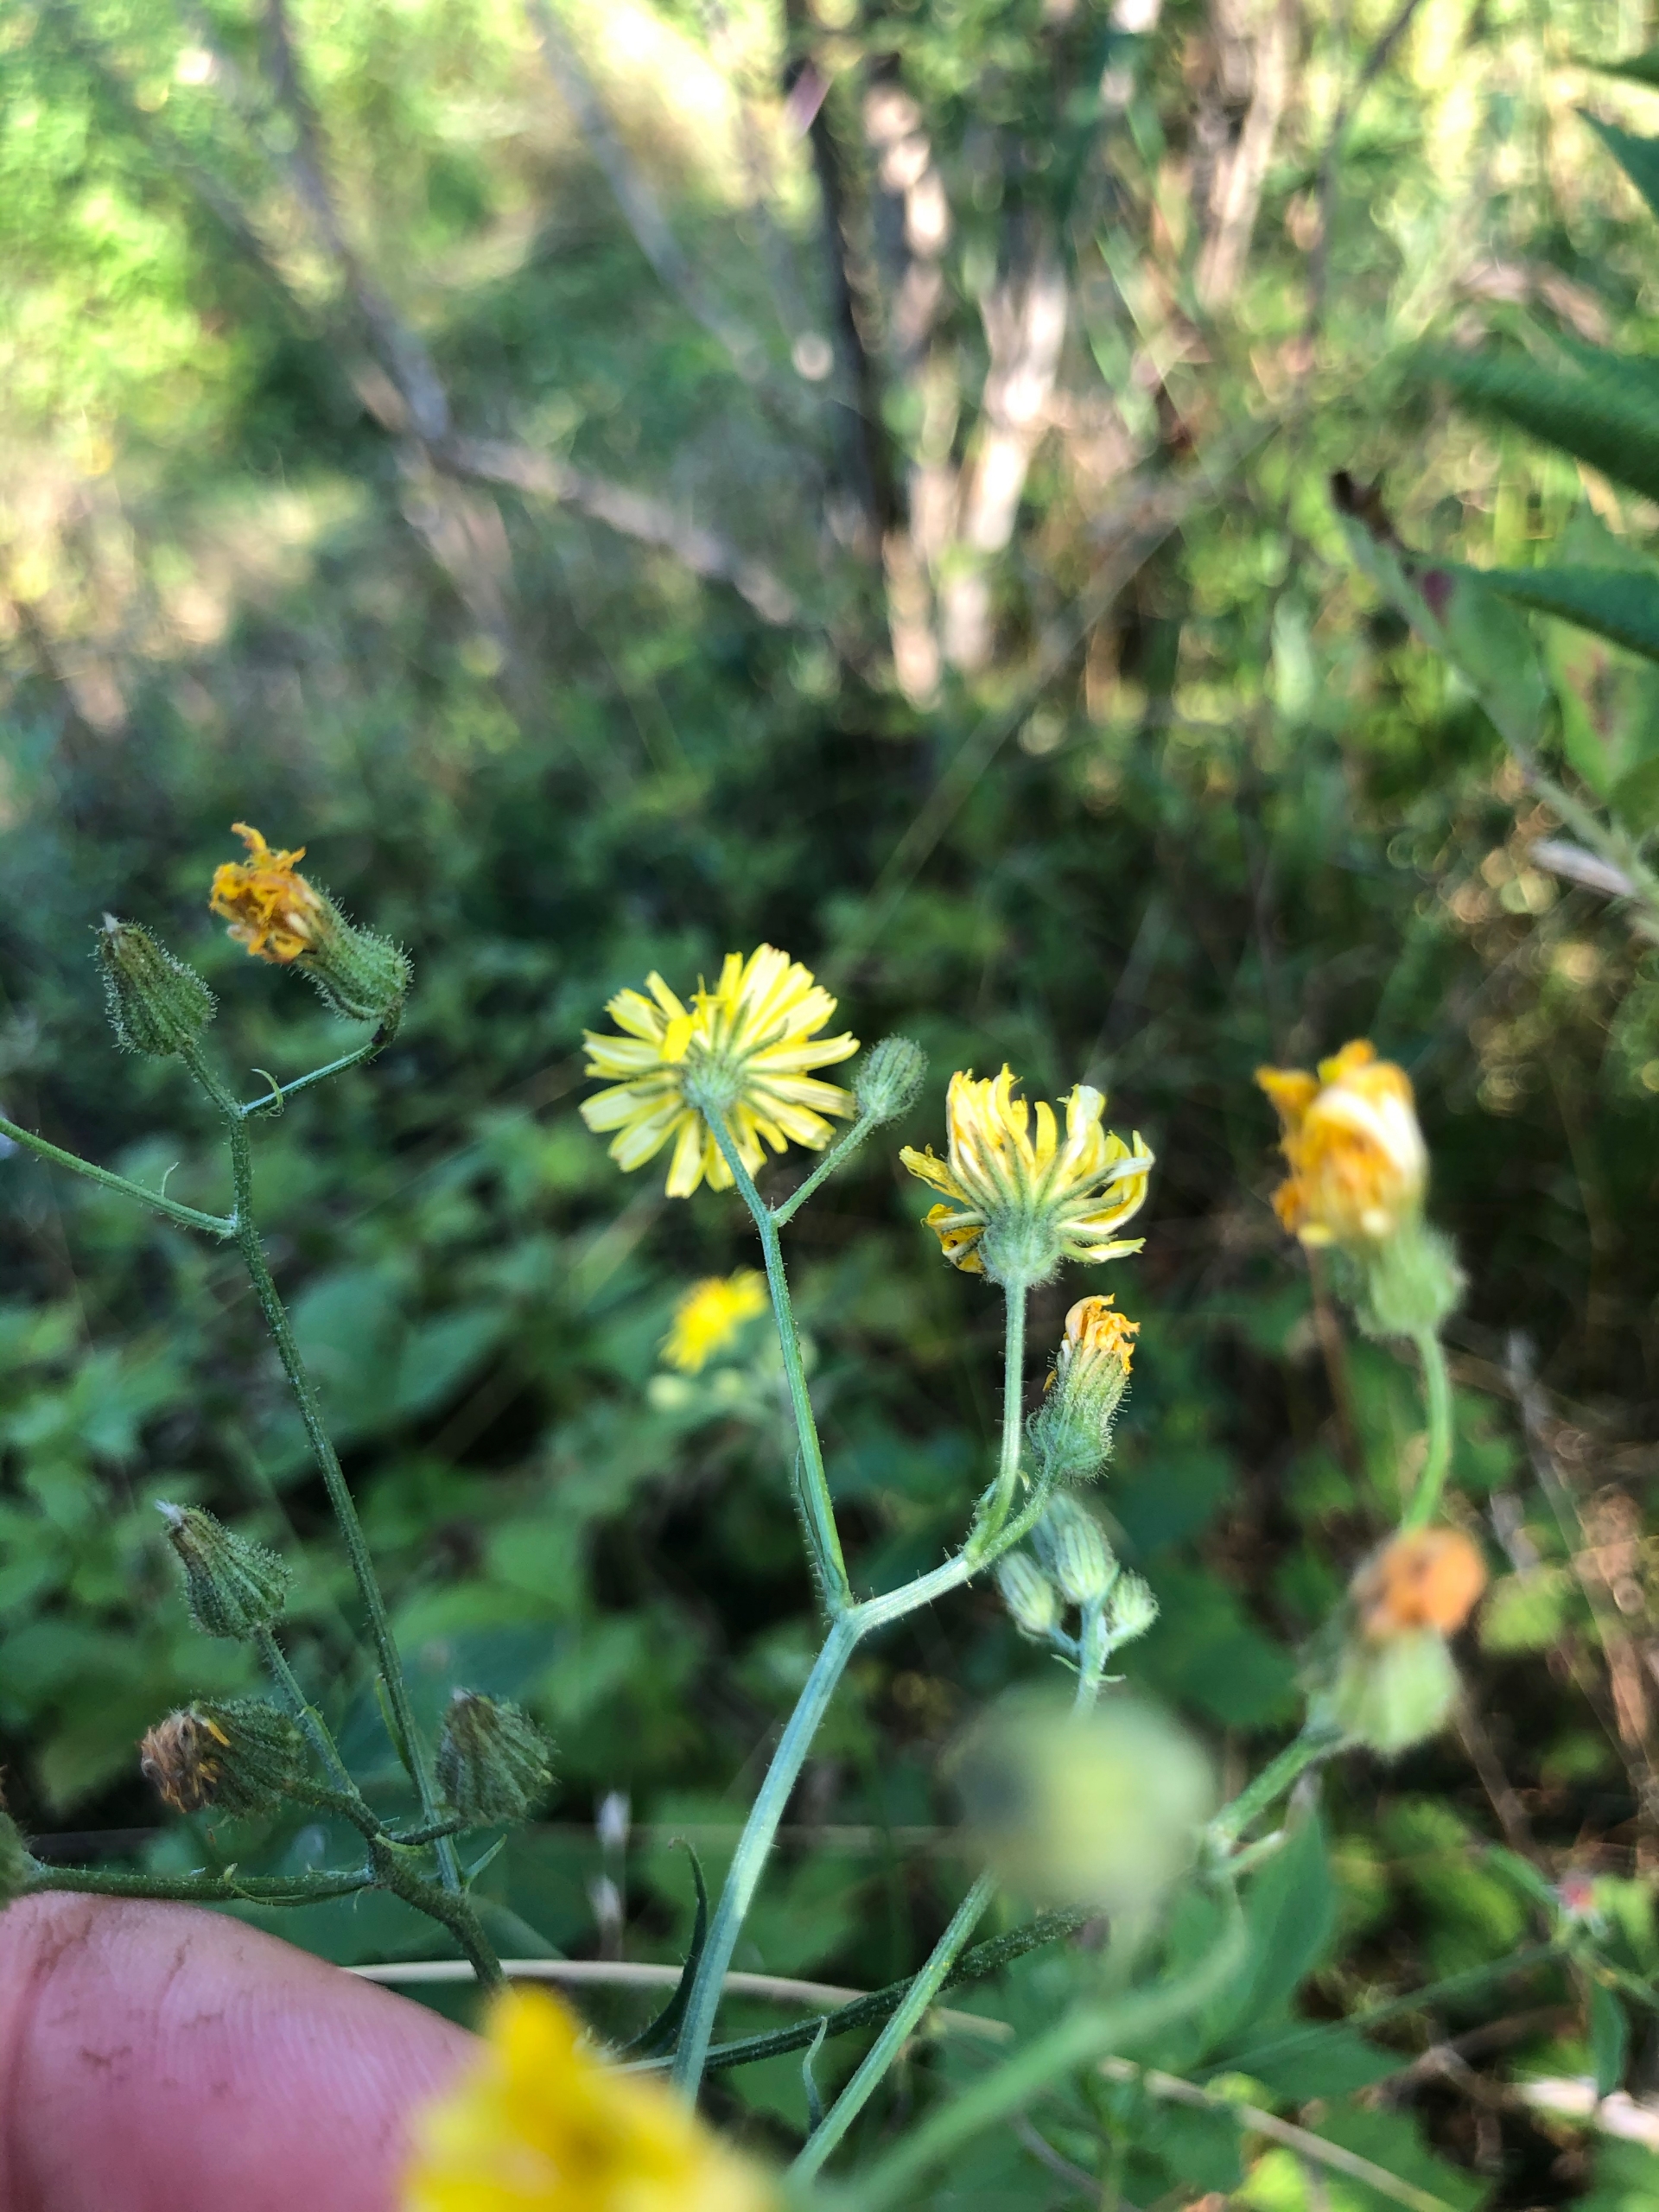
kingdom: Plantae
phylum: Tracheophyta
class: Magnoliopsida
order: Asterales
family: Asteraceae
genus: Crepis
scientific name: Crepis capillaris
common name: Grøn høgeskæg
